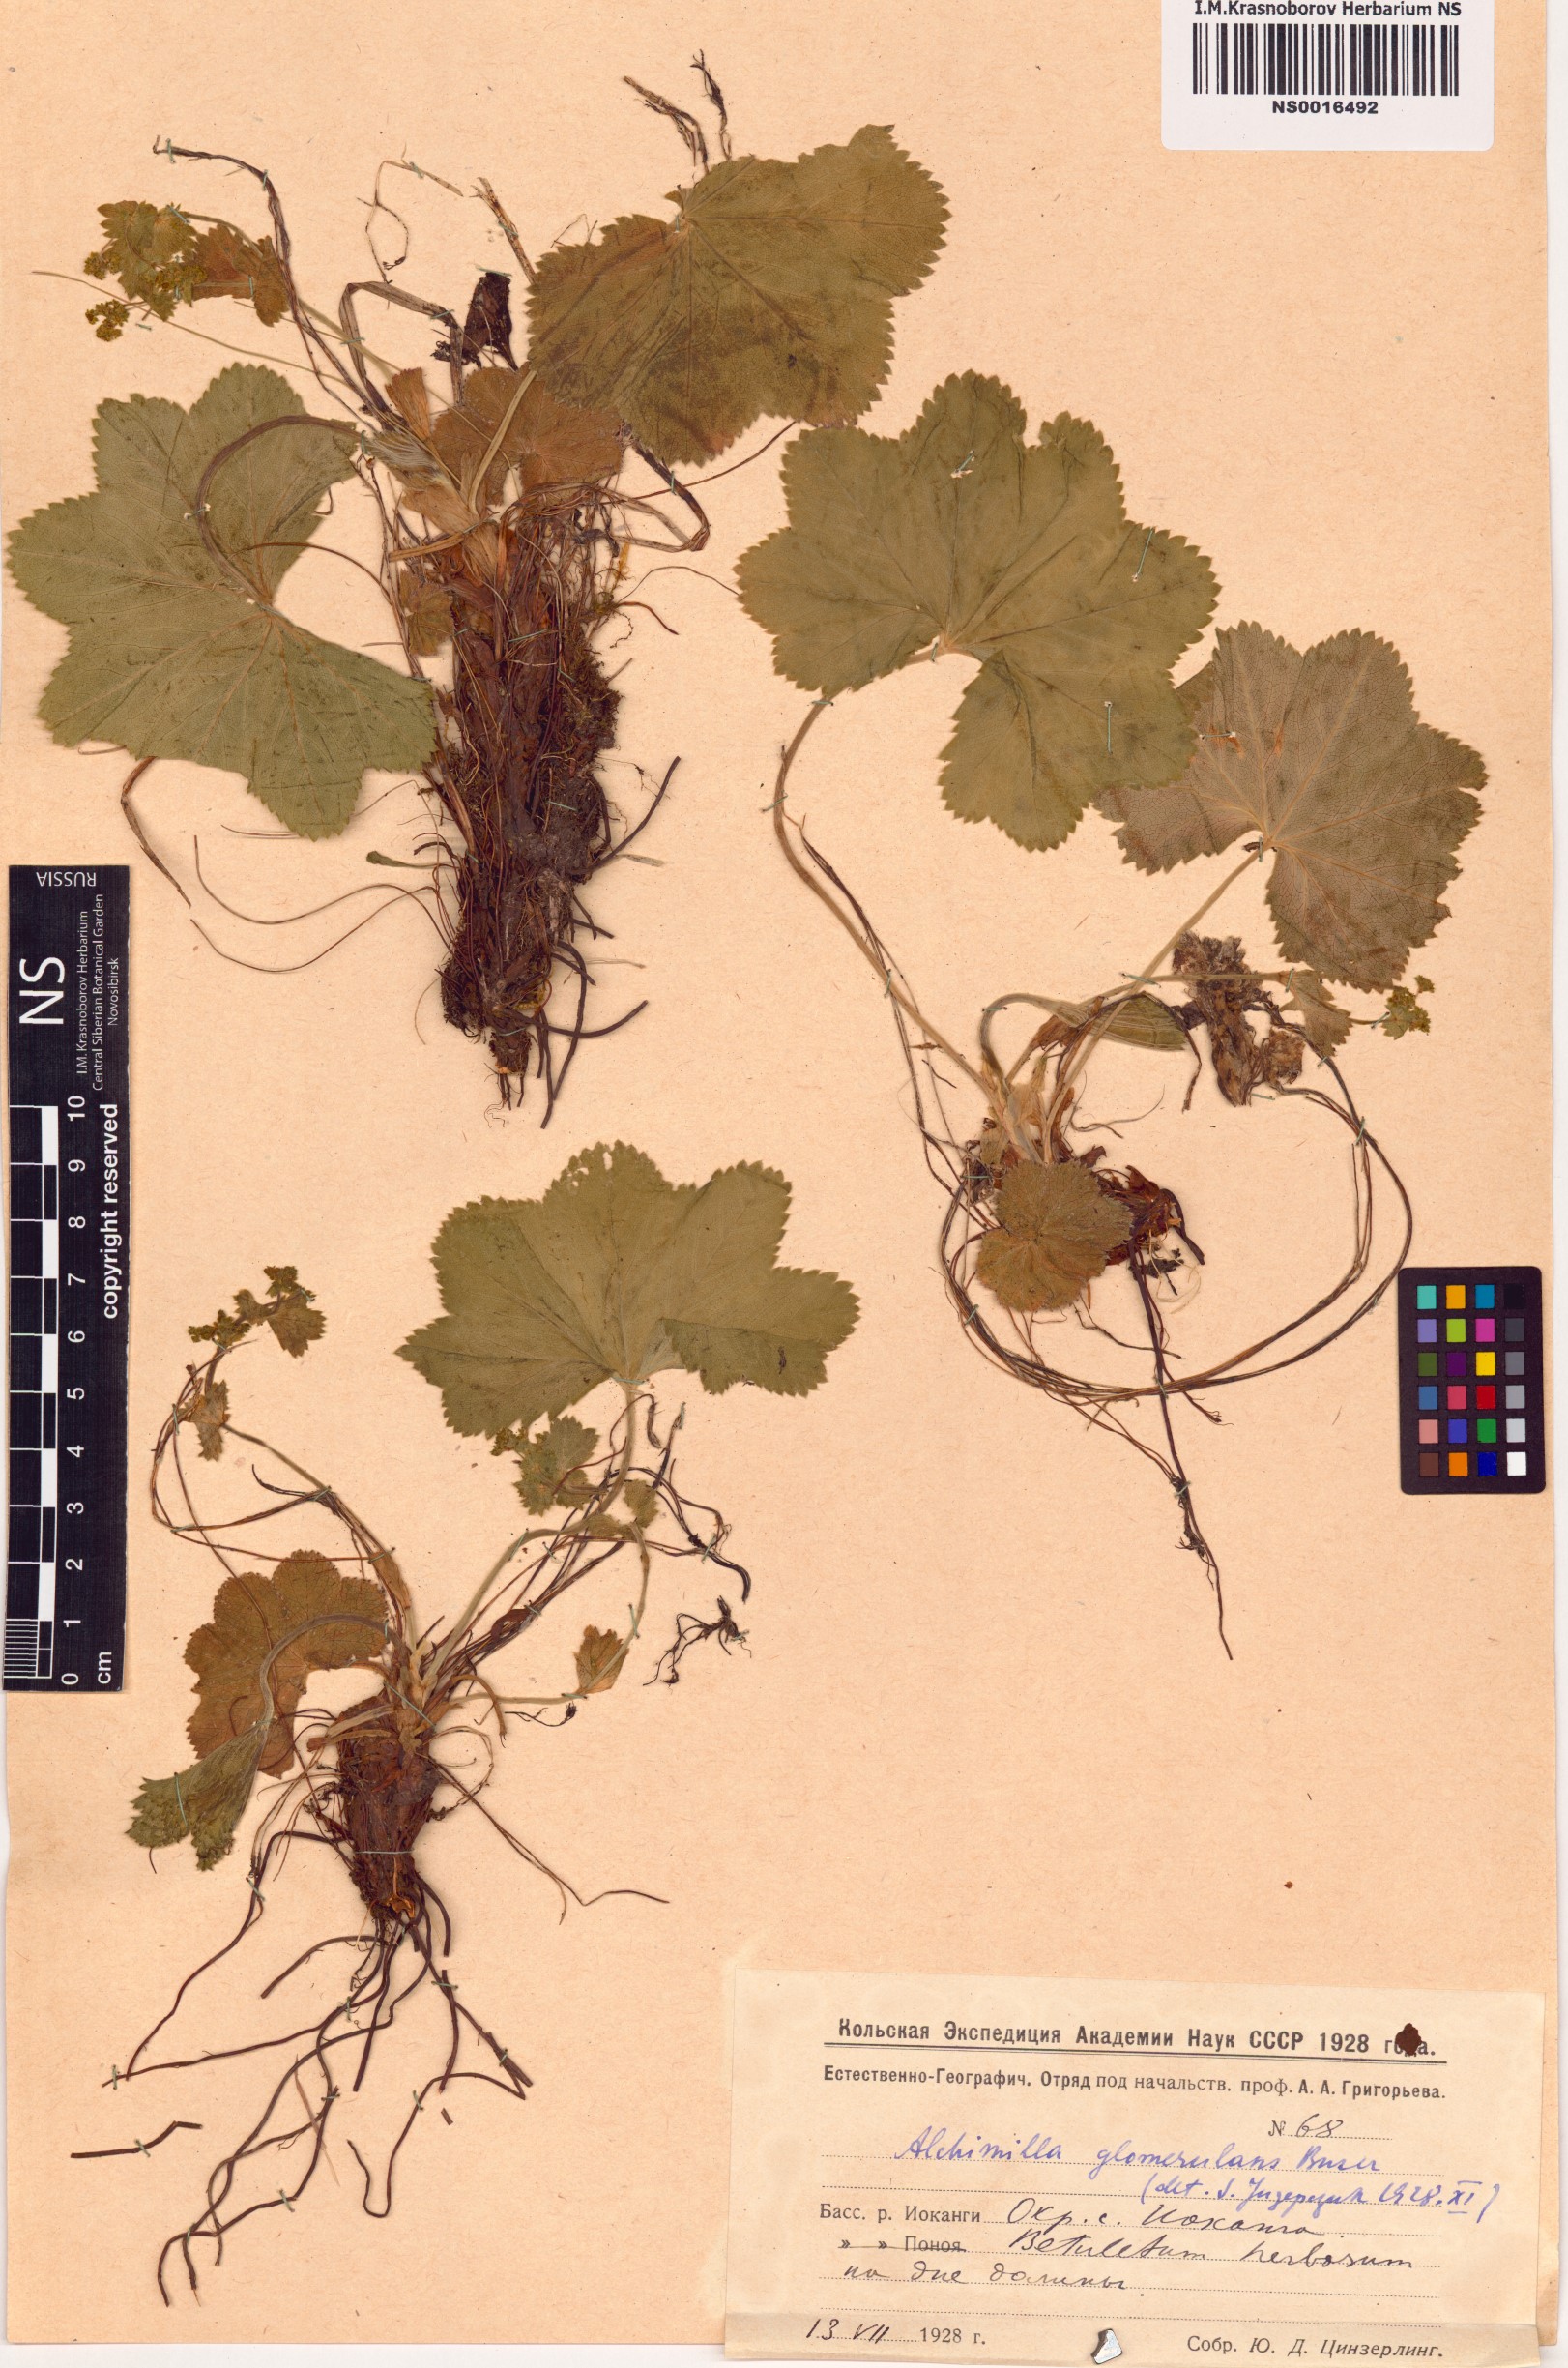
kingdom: Plantae
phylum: Tracheophyta
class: Magnoliopsida
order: Rosales
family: Rosaceae
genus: Alchemilla
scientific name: Alchemilla glomerulans
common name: Clustered lady's mantle
